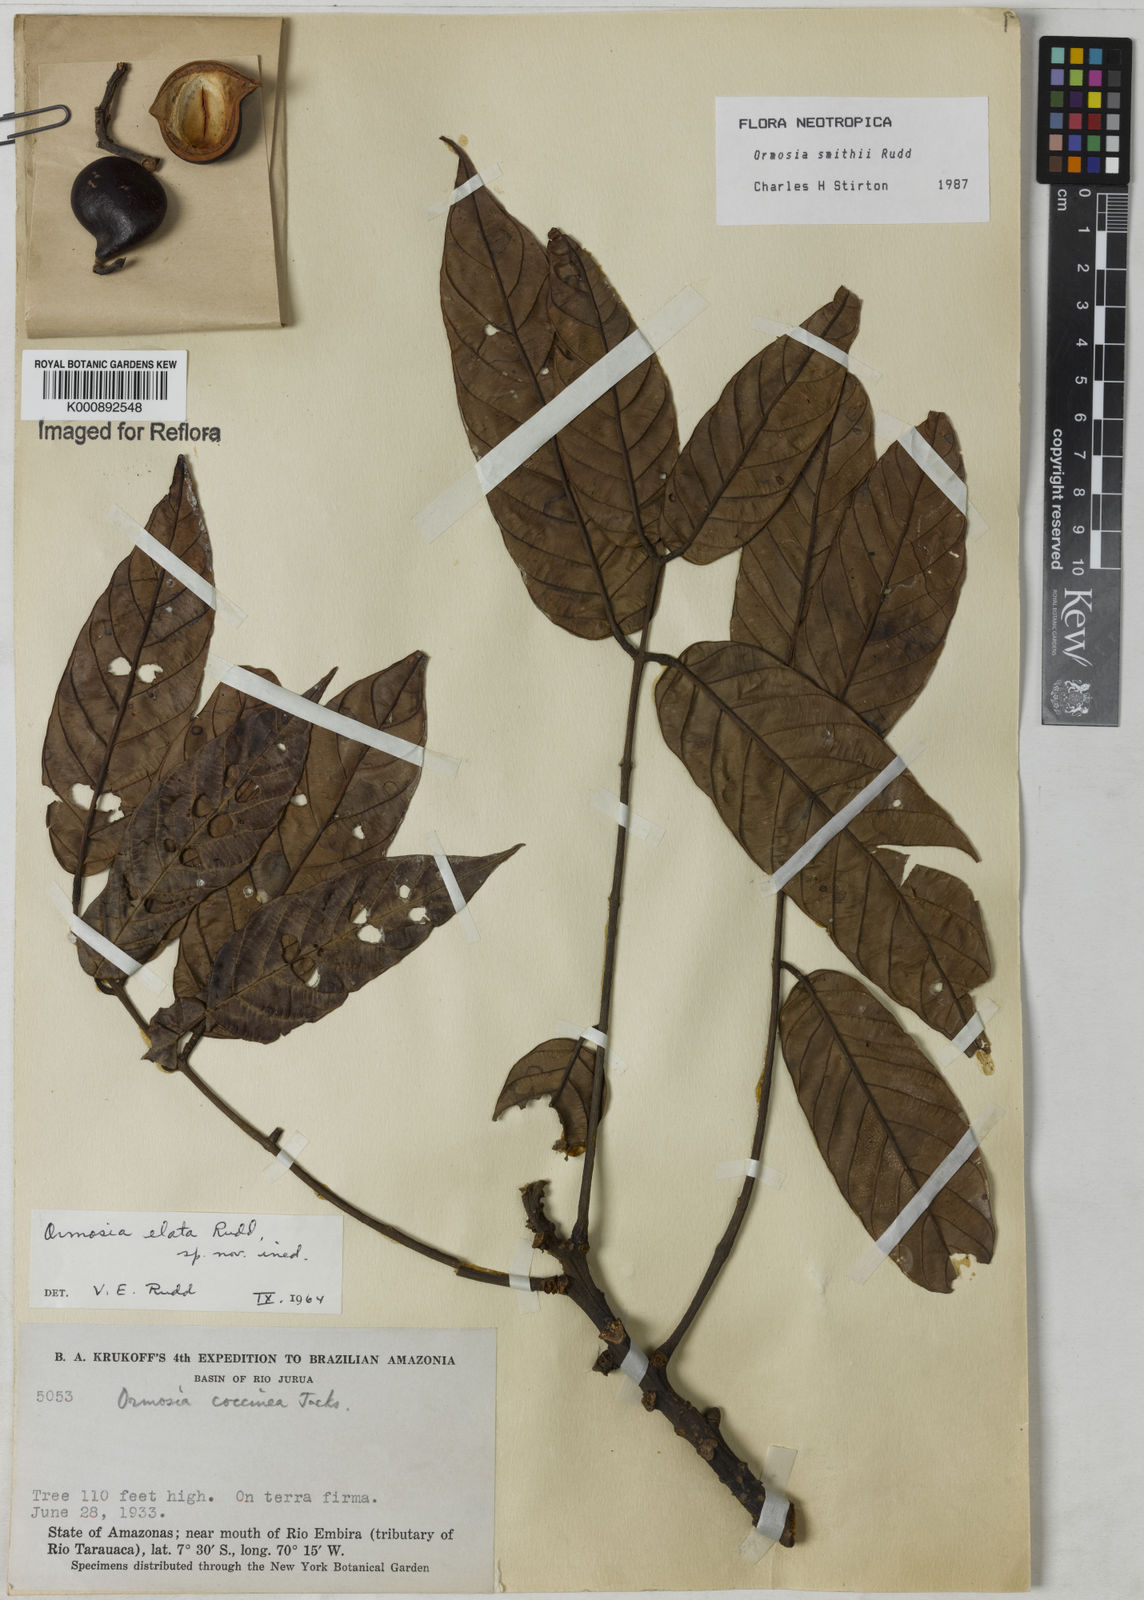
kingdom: Plantae
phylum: Tracheophyta
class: Magnoliopsida
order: Fabales
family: Fabaceae
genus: Ormosia
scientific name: Ormosia smithii
